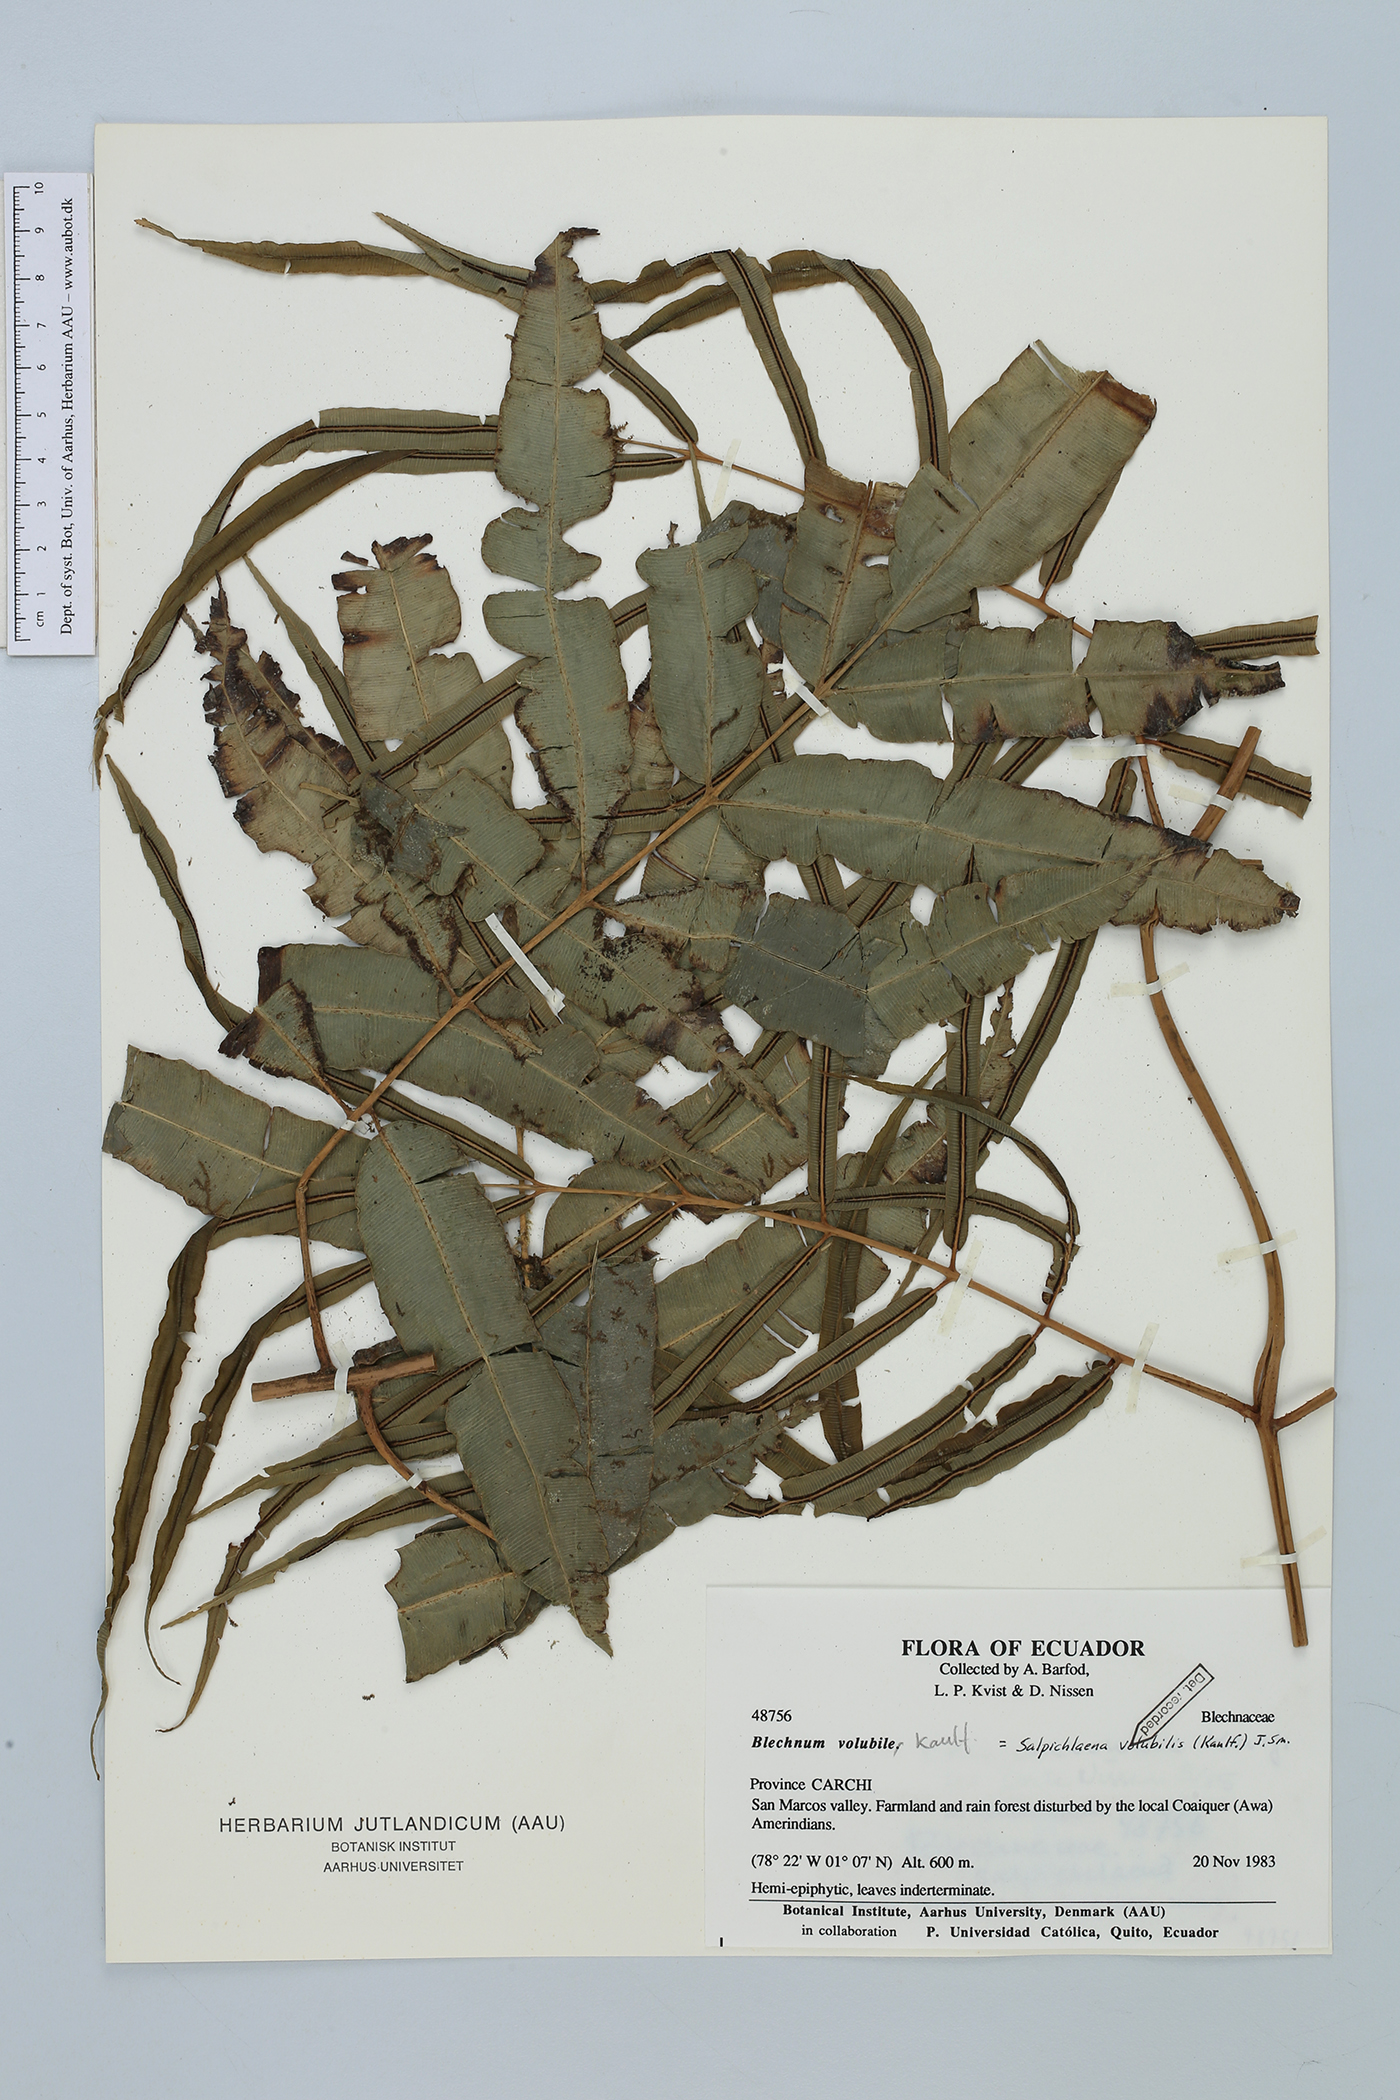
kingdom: Plantae
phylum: Tracheophyta
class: Polypodiopsida
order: Polypodiales
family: Blechnaceae
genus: Salpichlaena
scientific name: Salpichlaena volubilis
